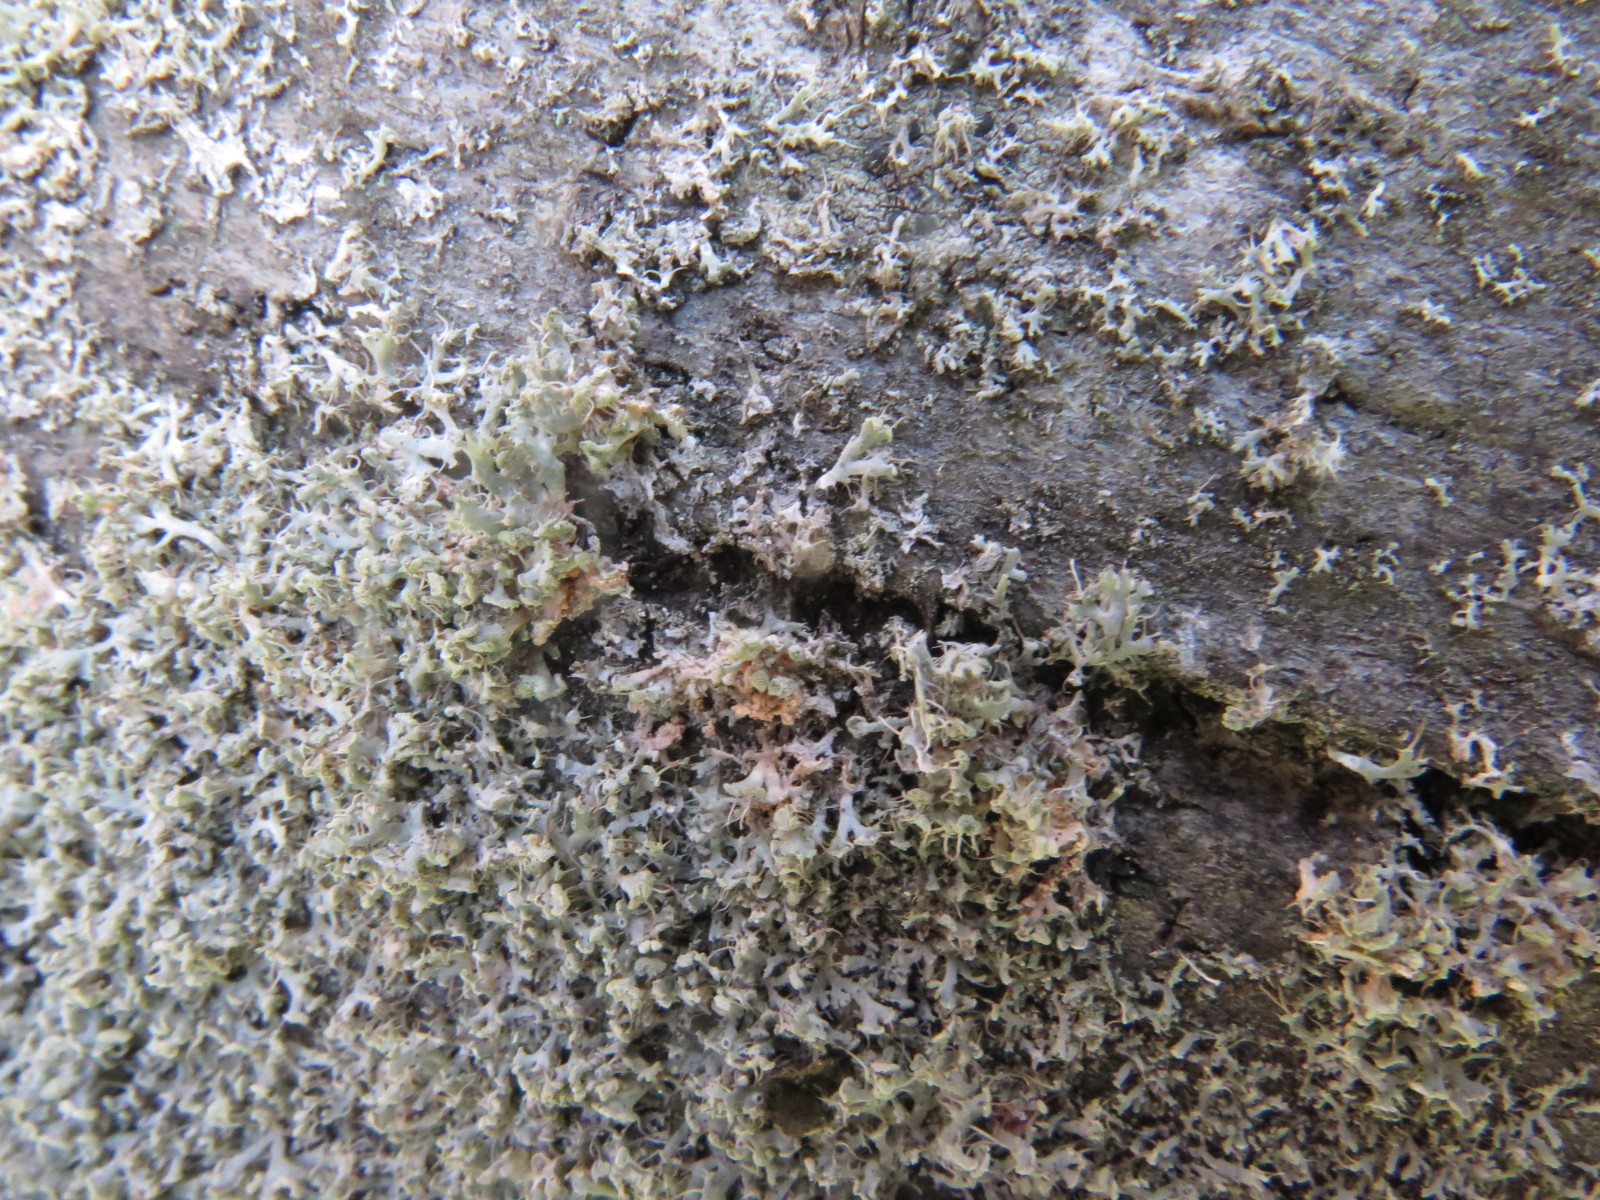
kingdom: Fungi
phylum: Basidiomycota
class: Agaricomycetes
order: Corticiales
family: Corticiaceae
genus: Erythricium
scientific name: Erythricium aurantiacum
